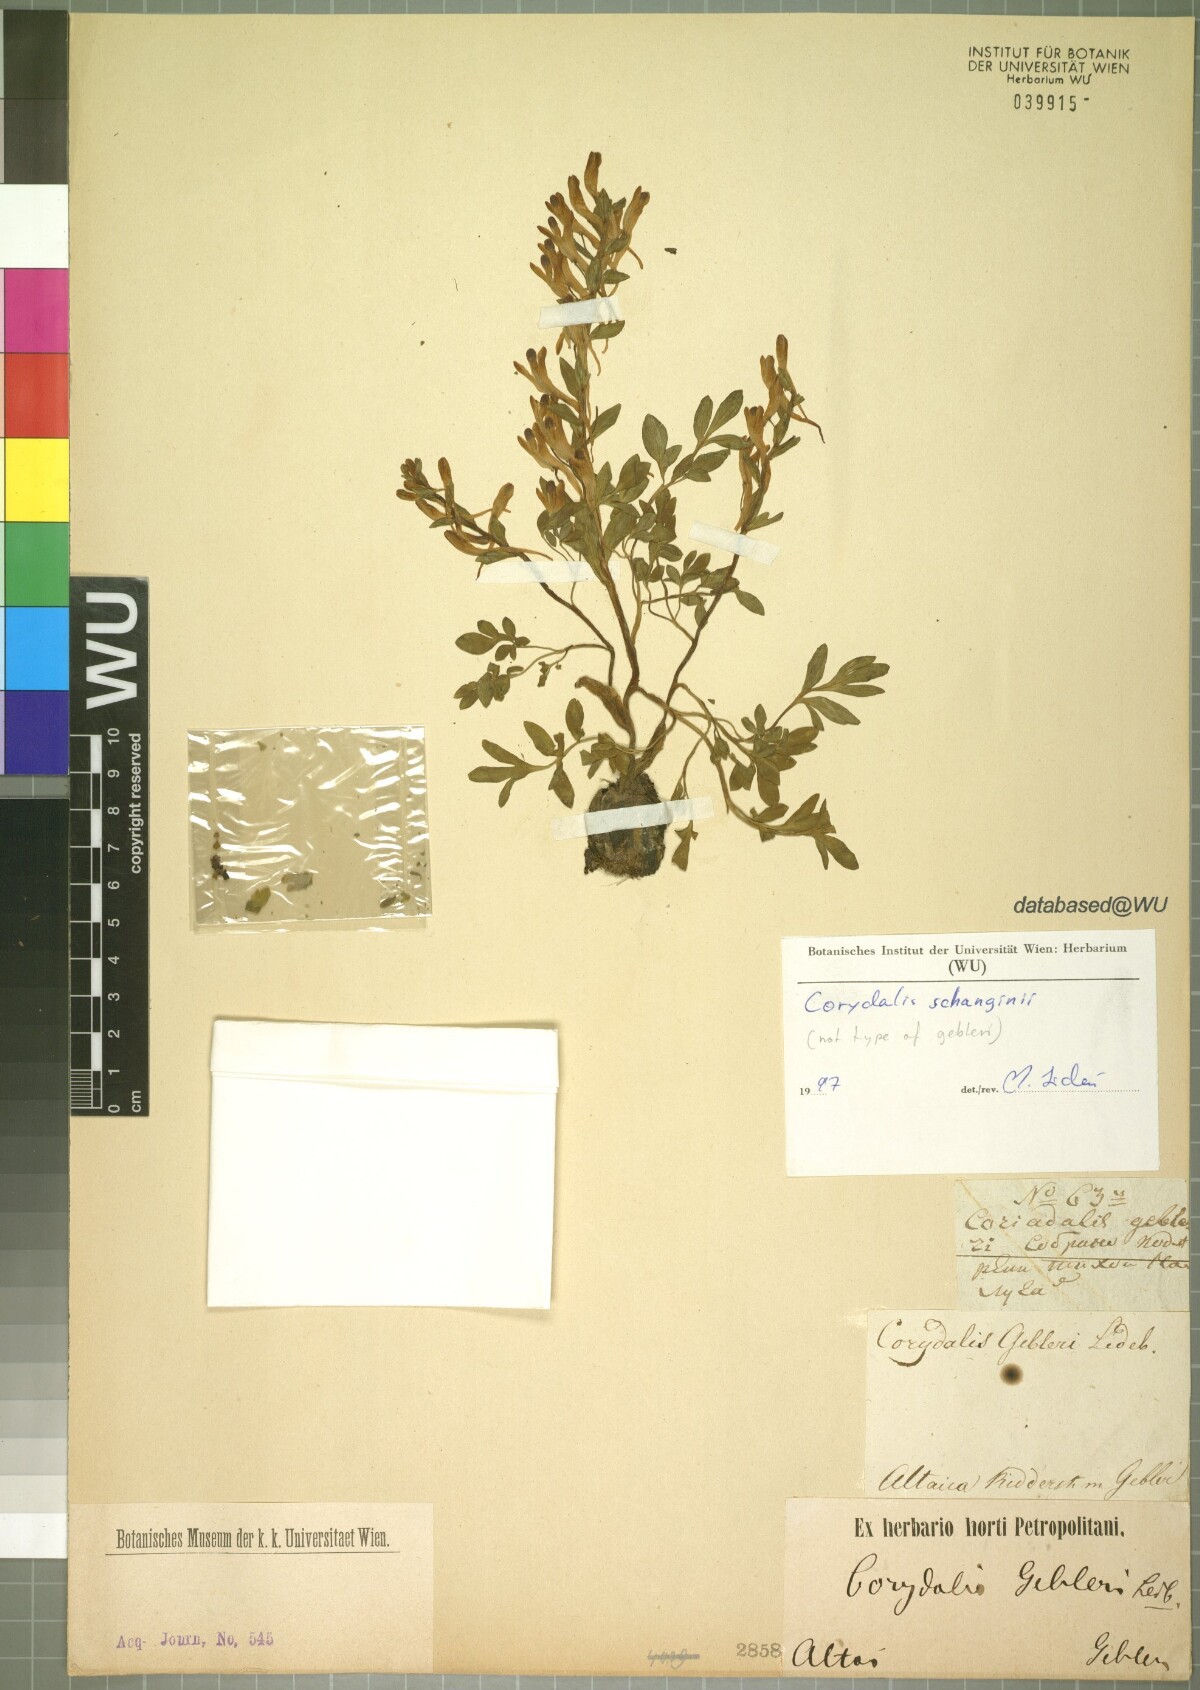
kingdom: Plantae
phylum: Tracheophyta
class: Magnoliopsida
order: Ranunculales
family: Papaveraceae
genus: Corydalis
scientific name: Corydalis capnoides
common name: Beaked corydalis
